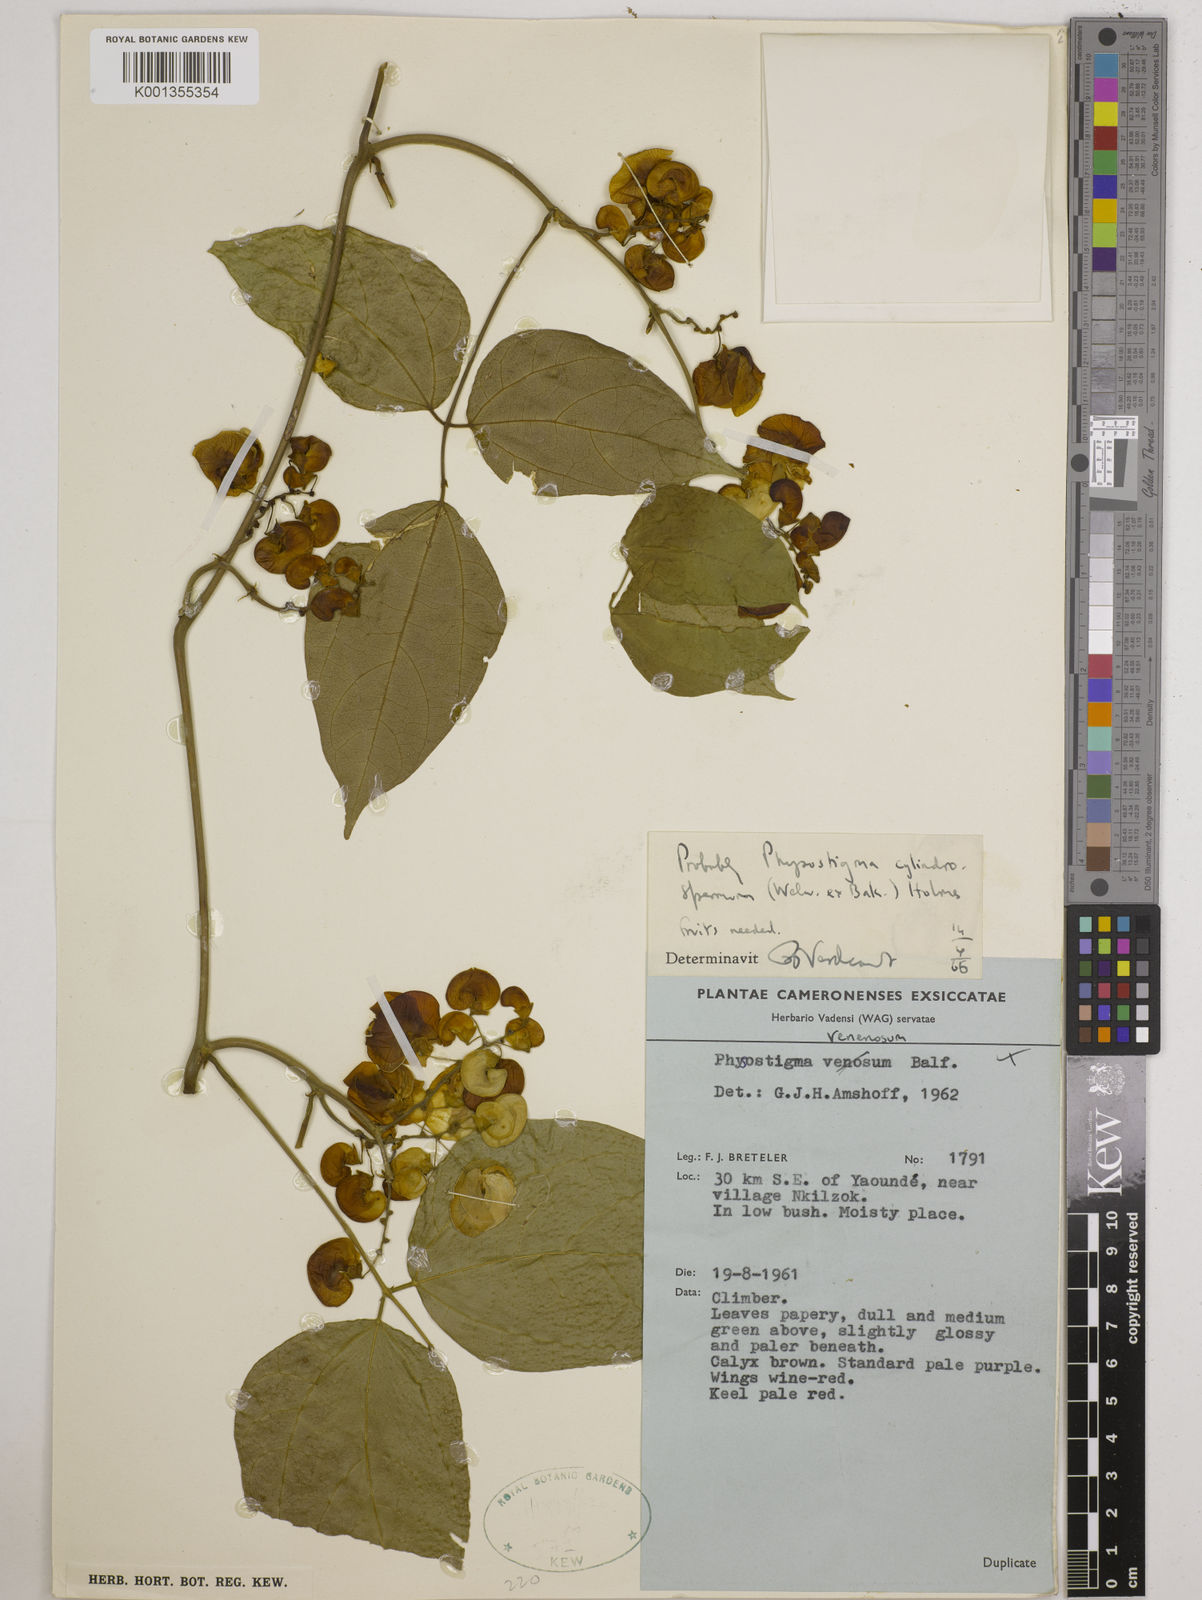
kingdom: Plantae
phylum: Tracheophyta
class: Magnoliopsida
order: Fabales
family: Fabaceae
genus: Physostigma
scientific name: Physostigma cylindrospermum
